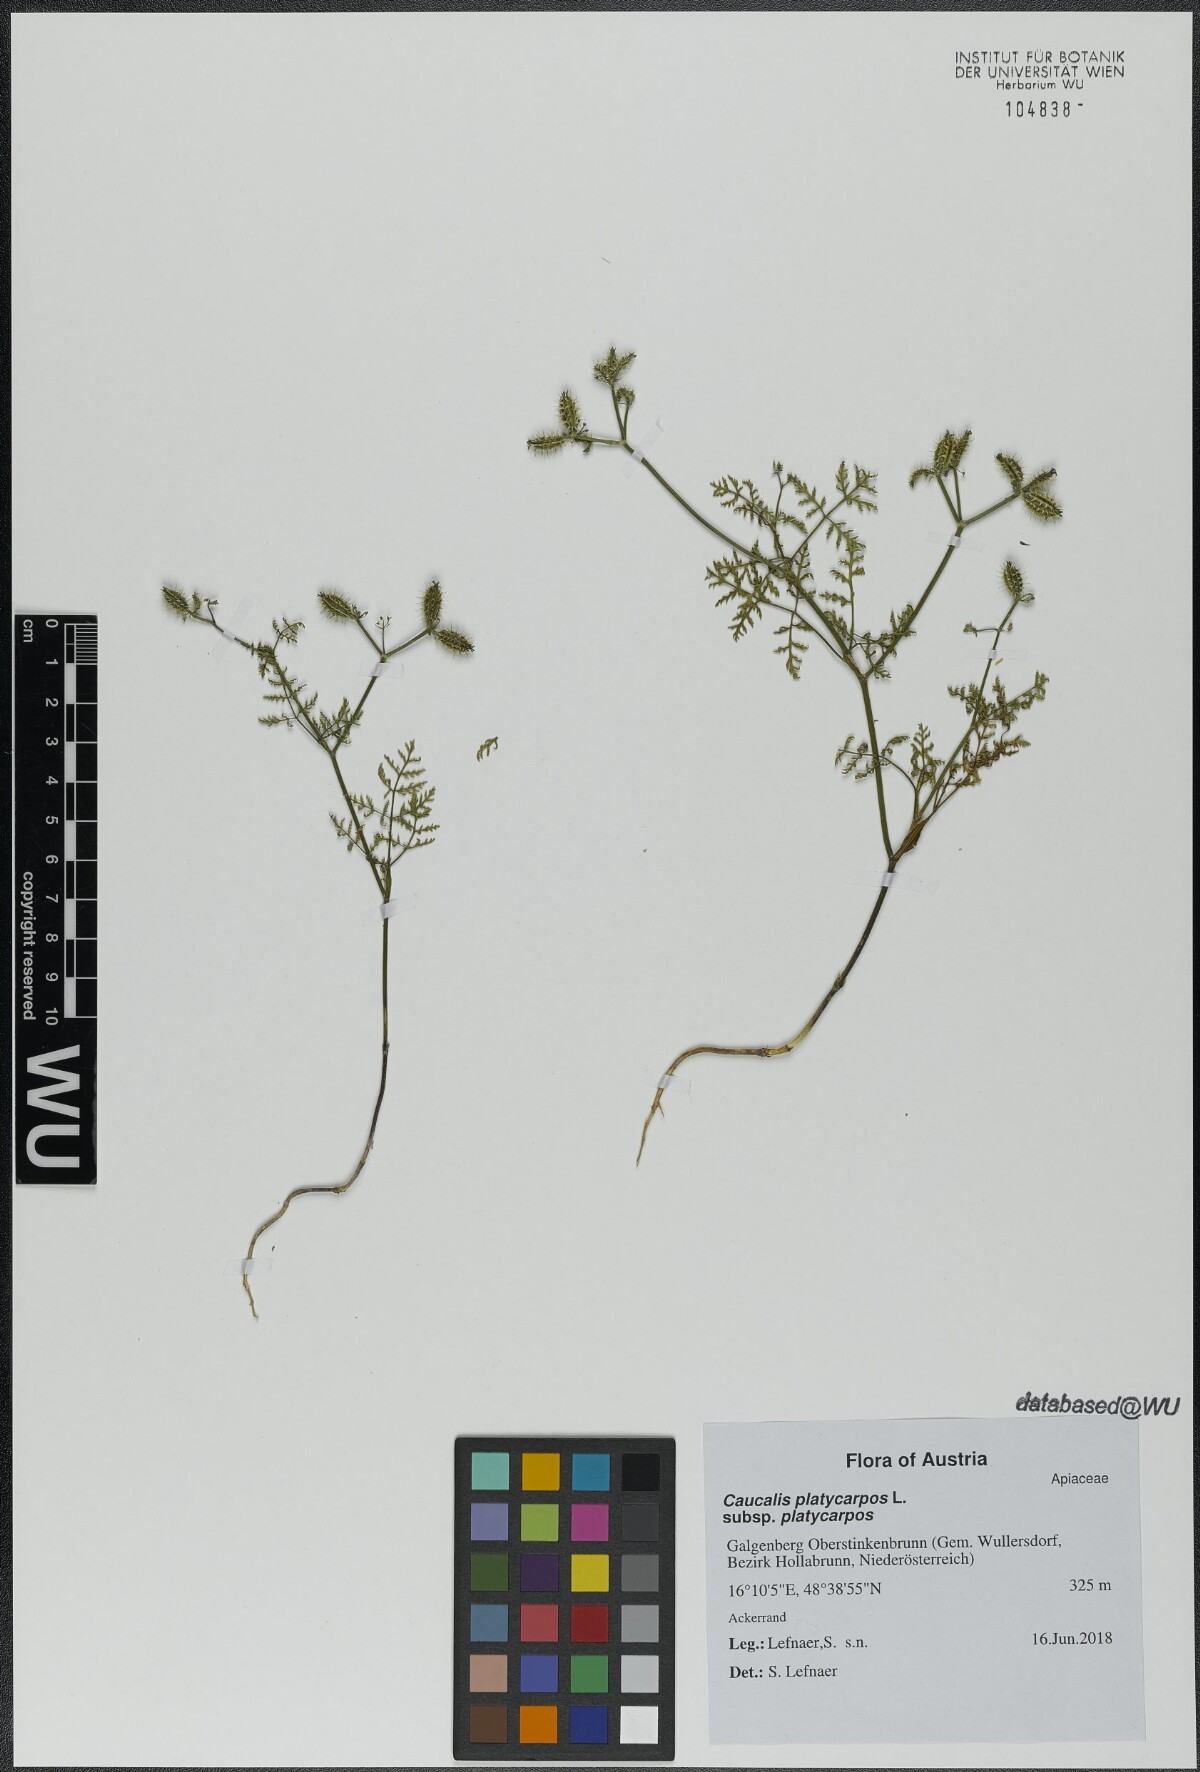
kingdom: Plantae
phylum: Tracheophyta
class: Magnoliopsida
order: Apiales
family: Apiaceae
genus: Caucalis
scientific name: Caucalis platycarpos
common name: Small bur-parsley
